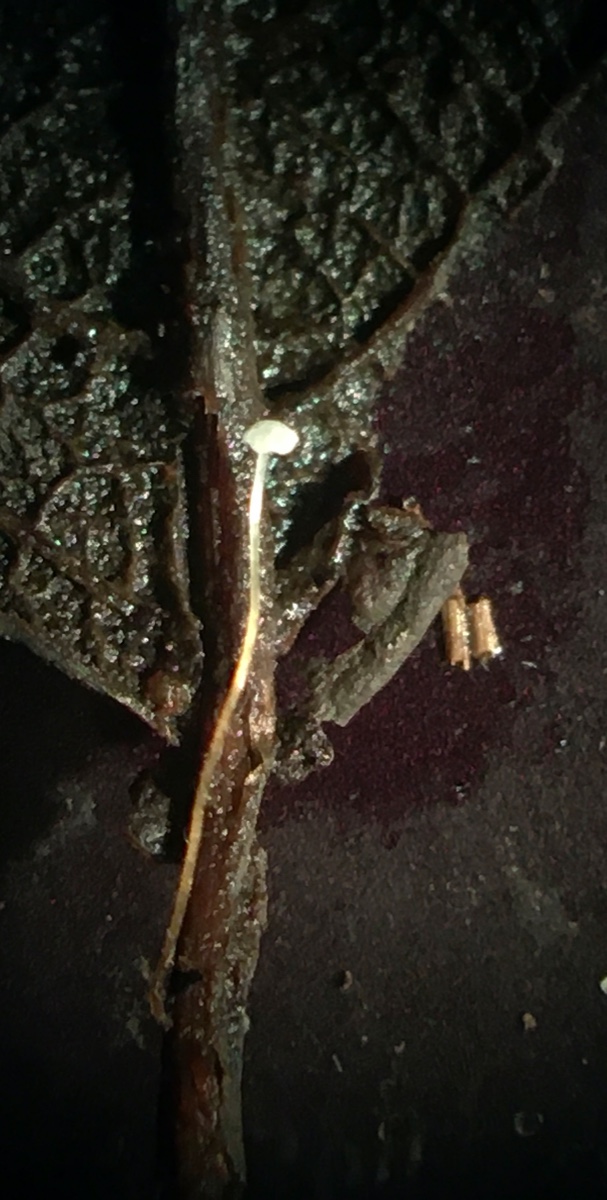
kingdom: Fungi
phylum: Basidiomycota
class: Agaricomycetes
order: Agaricales
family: Physalacriaceae
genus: Rhizomarasmius
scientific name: Rhizomarasmius setosus
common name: bøgeblads-bruskhat
